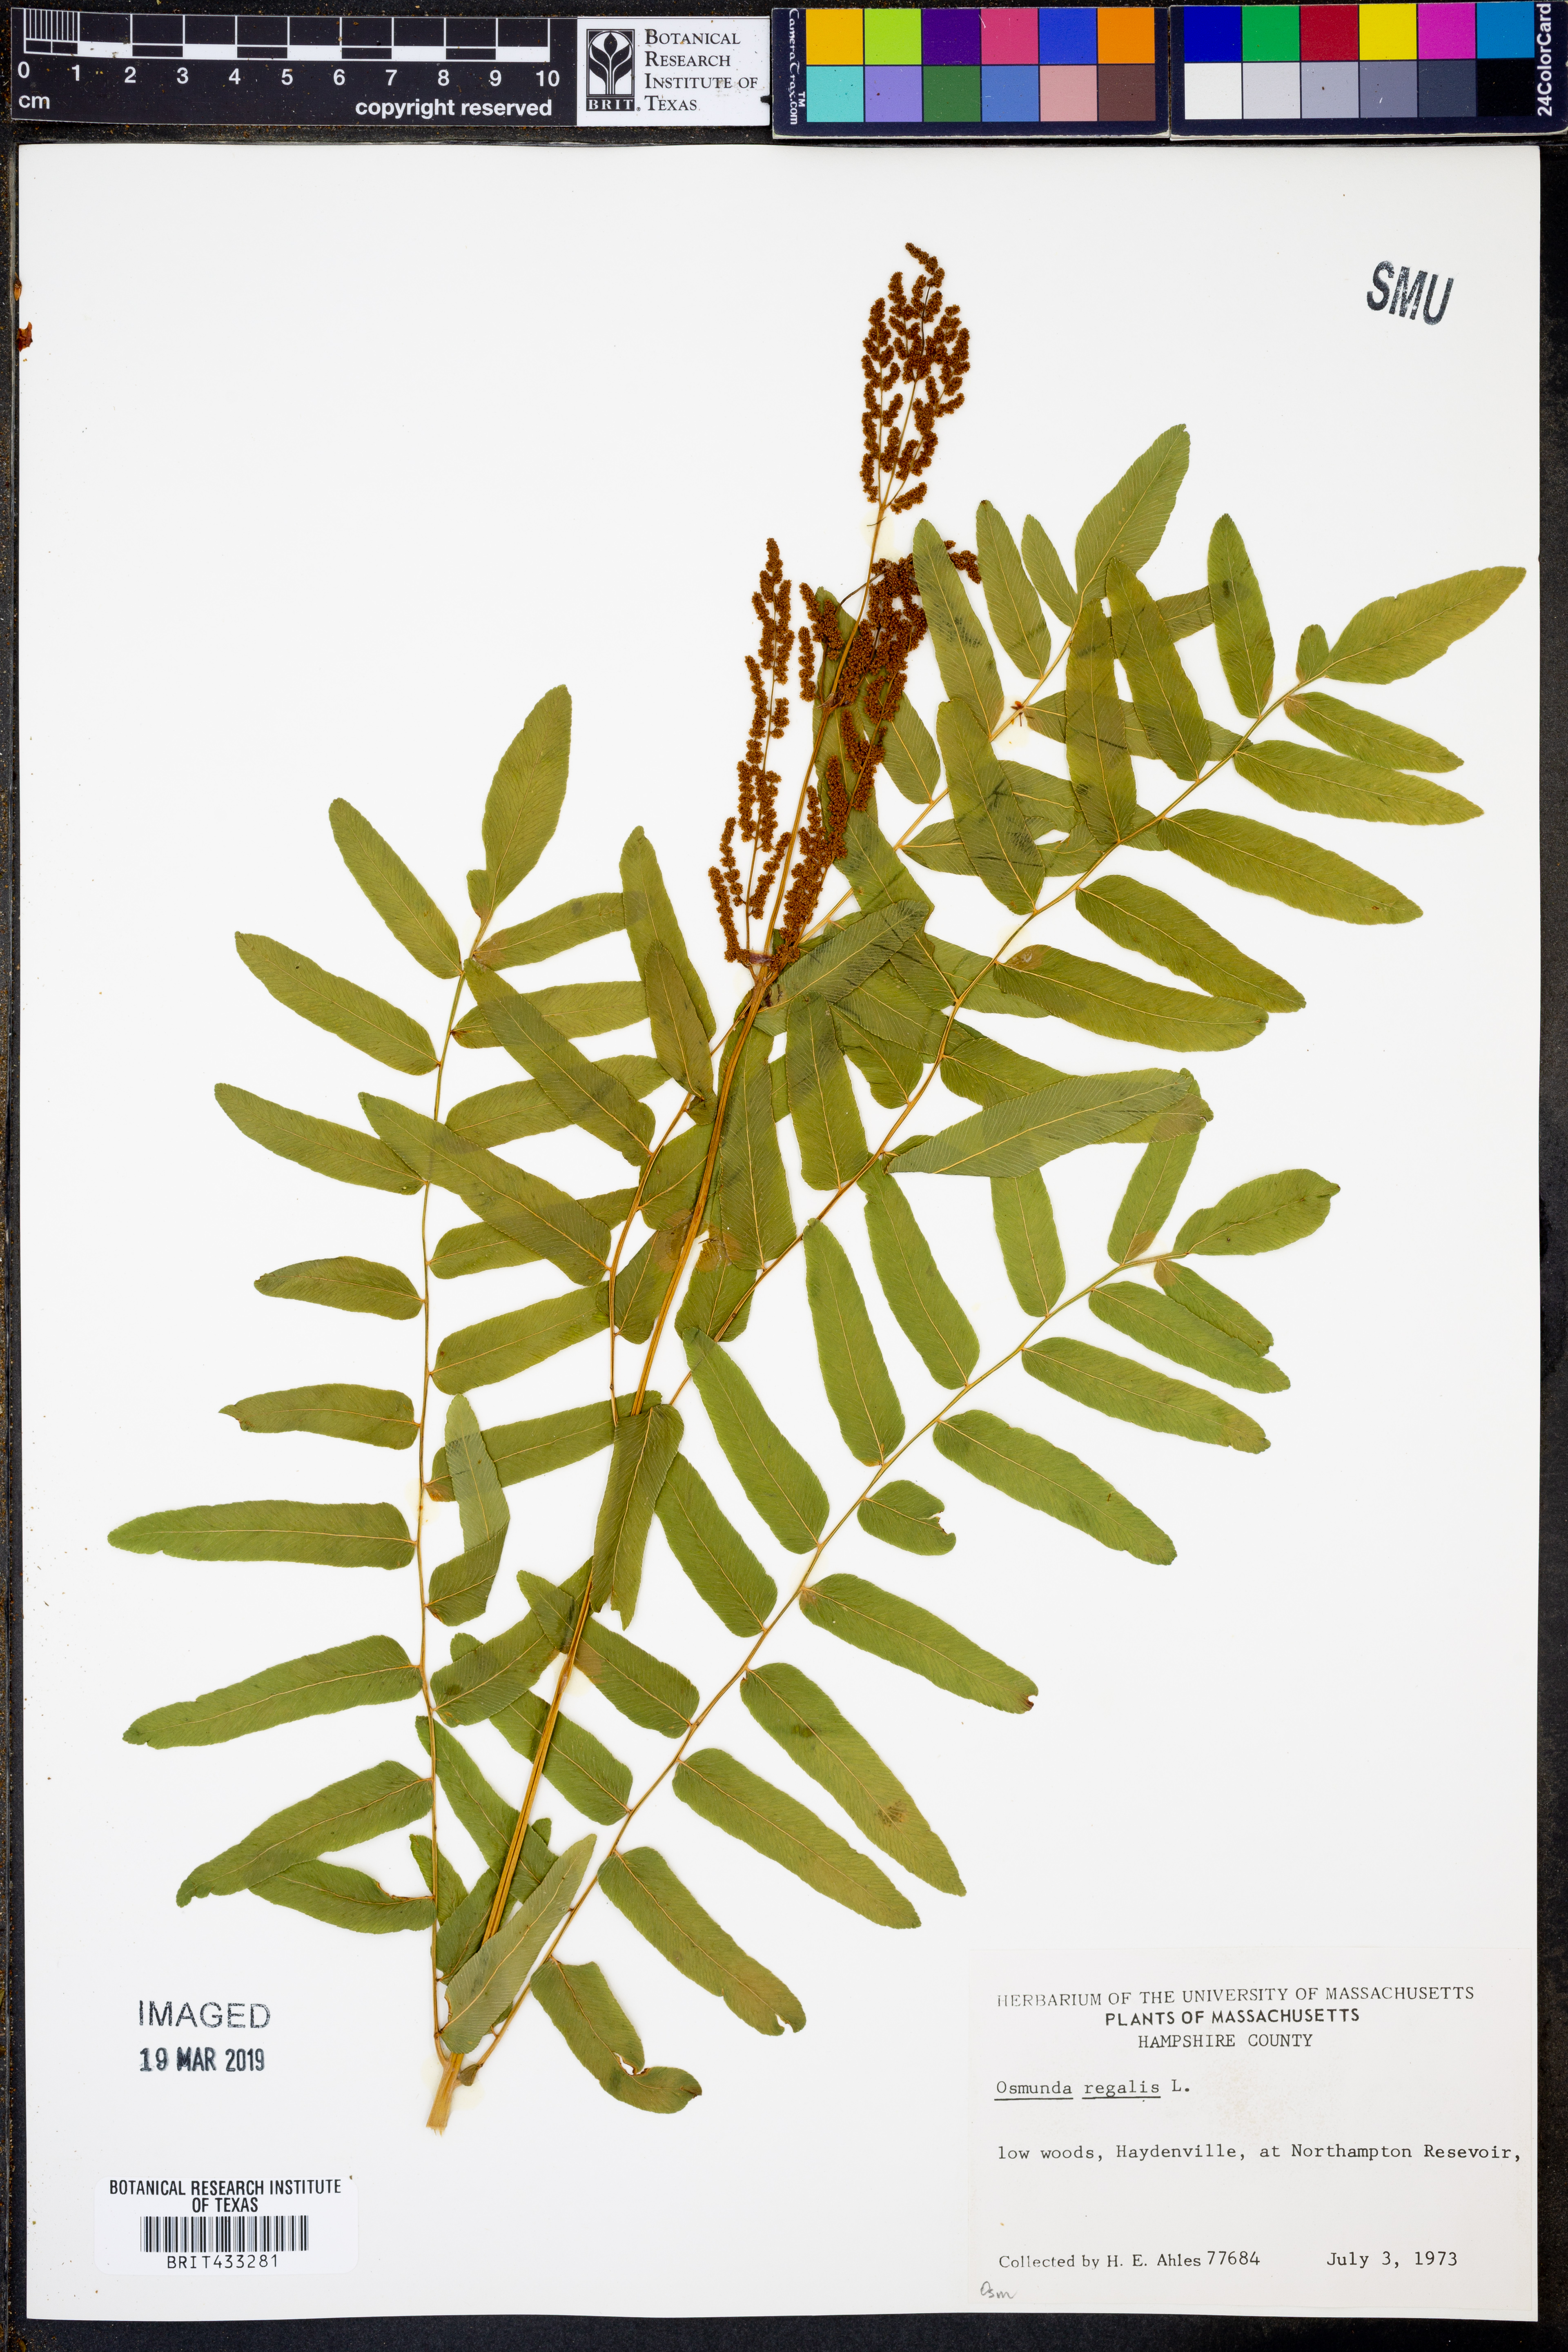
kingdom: Plantae
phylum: Tracheophyta
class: Polypodiopsida
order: Osmundales
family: Osmundaceae
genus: Osmunda
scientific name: Osmunda regalis
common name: Royal fern
